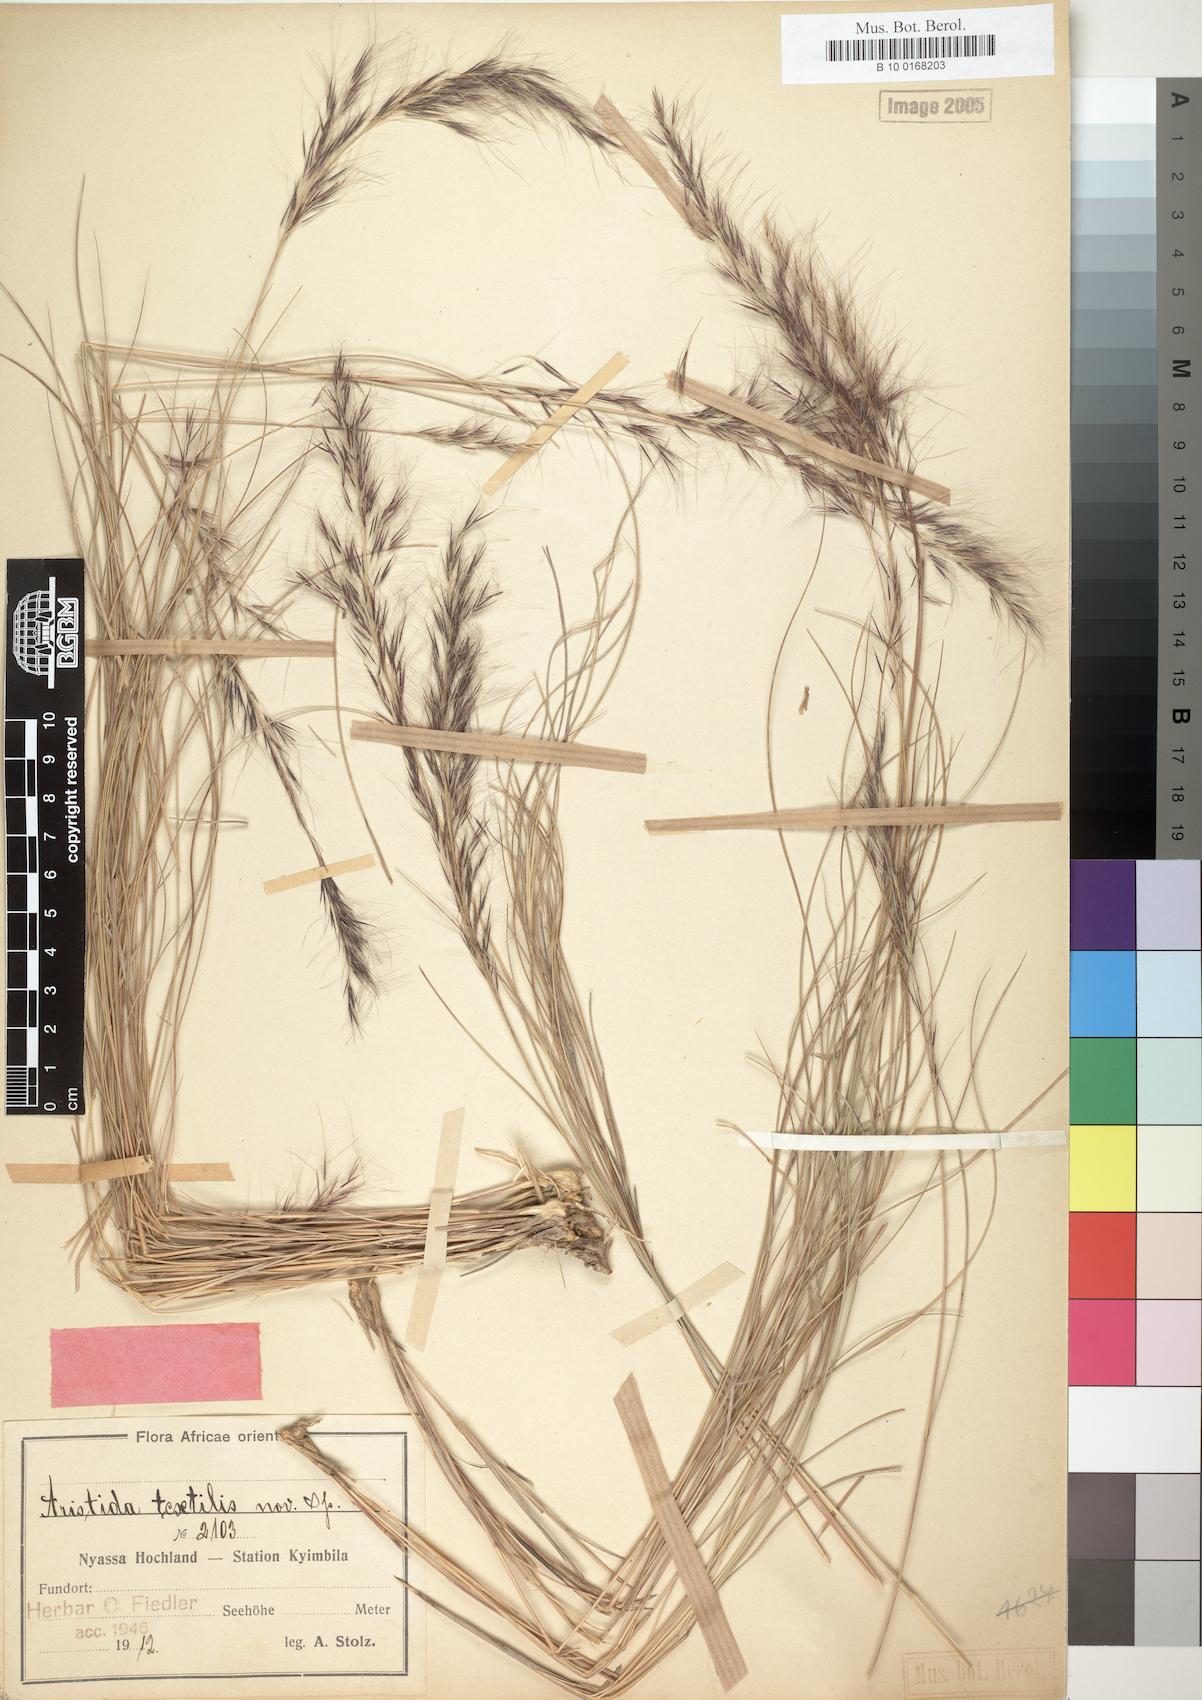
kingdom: Plantae
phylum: Tracheophyta
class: Liliopsida
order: Poales
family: Poaceae
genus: Aristida
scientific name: Aristida junciformis
